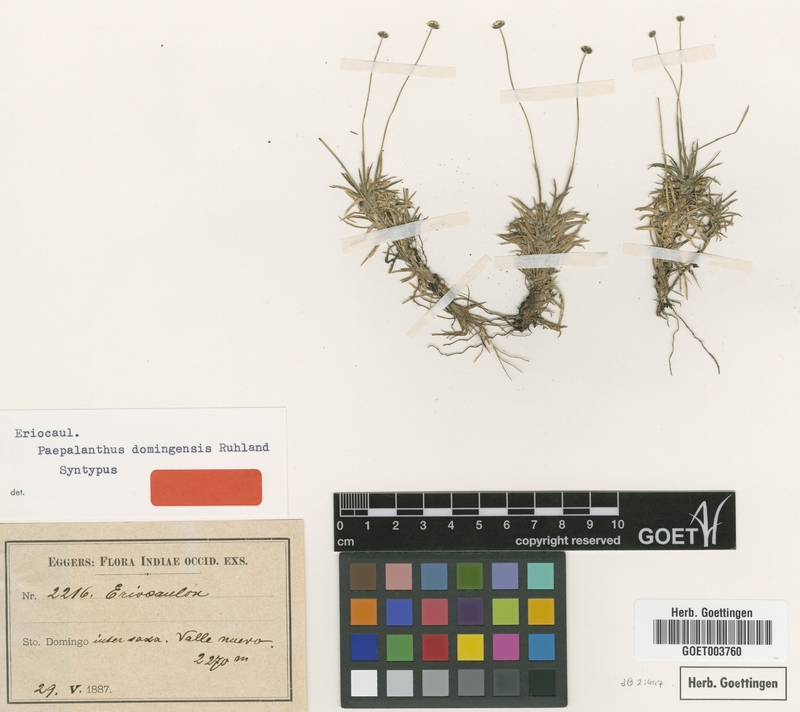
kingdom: Plantae
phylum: Tracheophyta
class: Liliopsida
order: Poales
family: Eriocaulaceae
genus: Paepalanthus
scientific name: Paepalanthus repens
